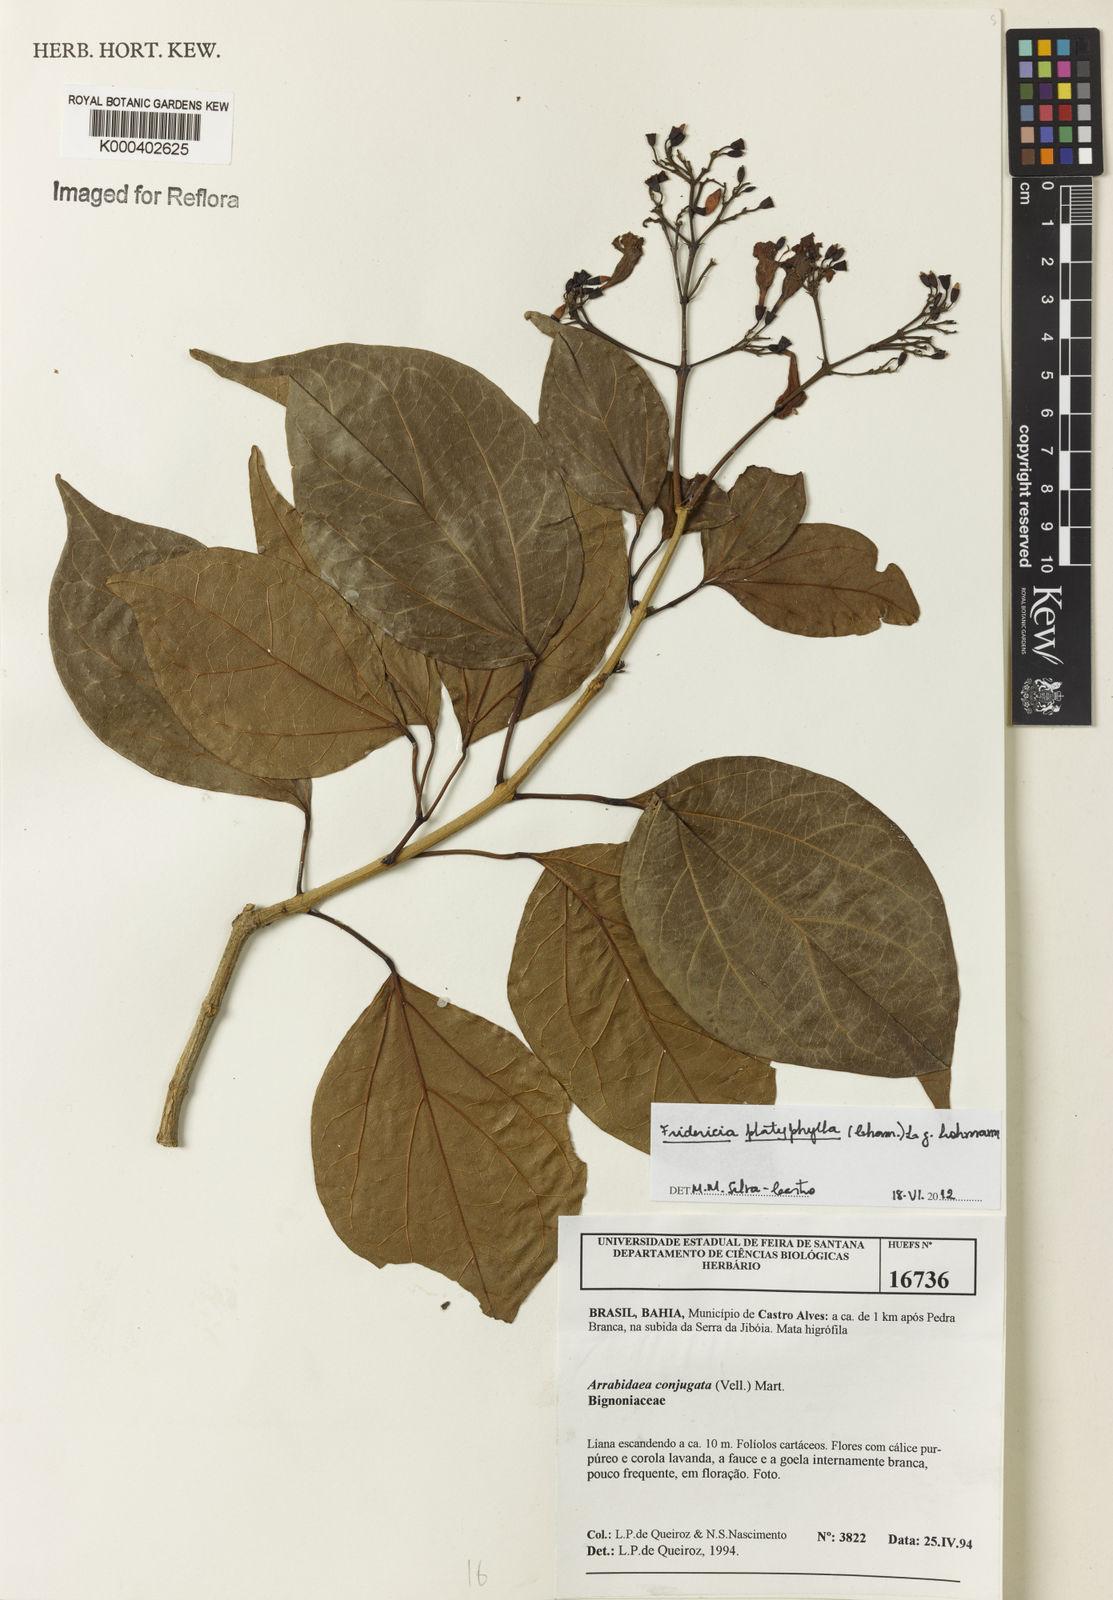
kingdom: Plantae
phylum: Tracheophyta
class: Magnoliopsida
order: Lamiales
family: Bignoniaceae
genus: Fridericia
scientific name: Fridericia platyphylla
